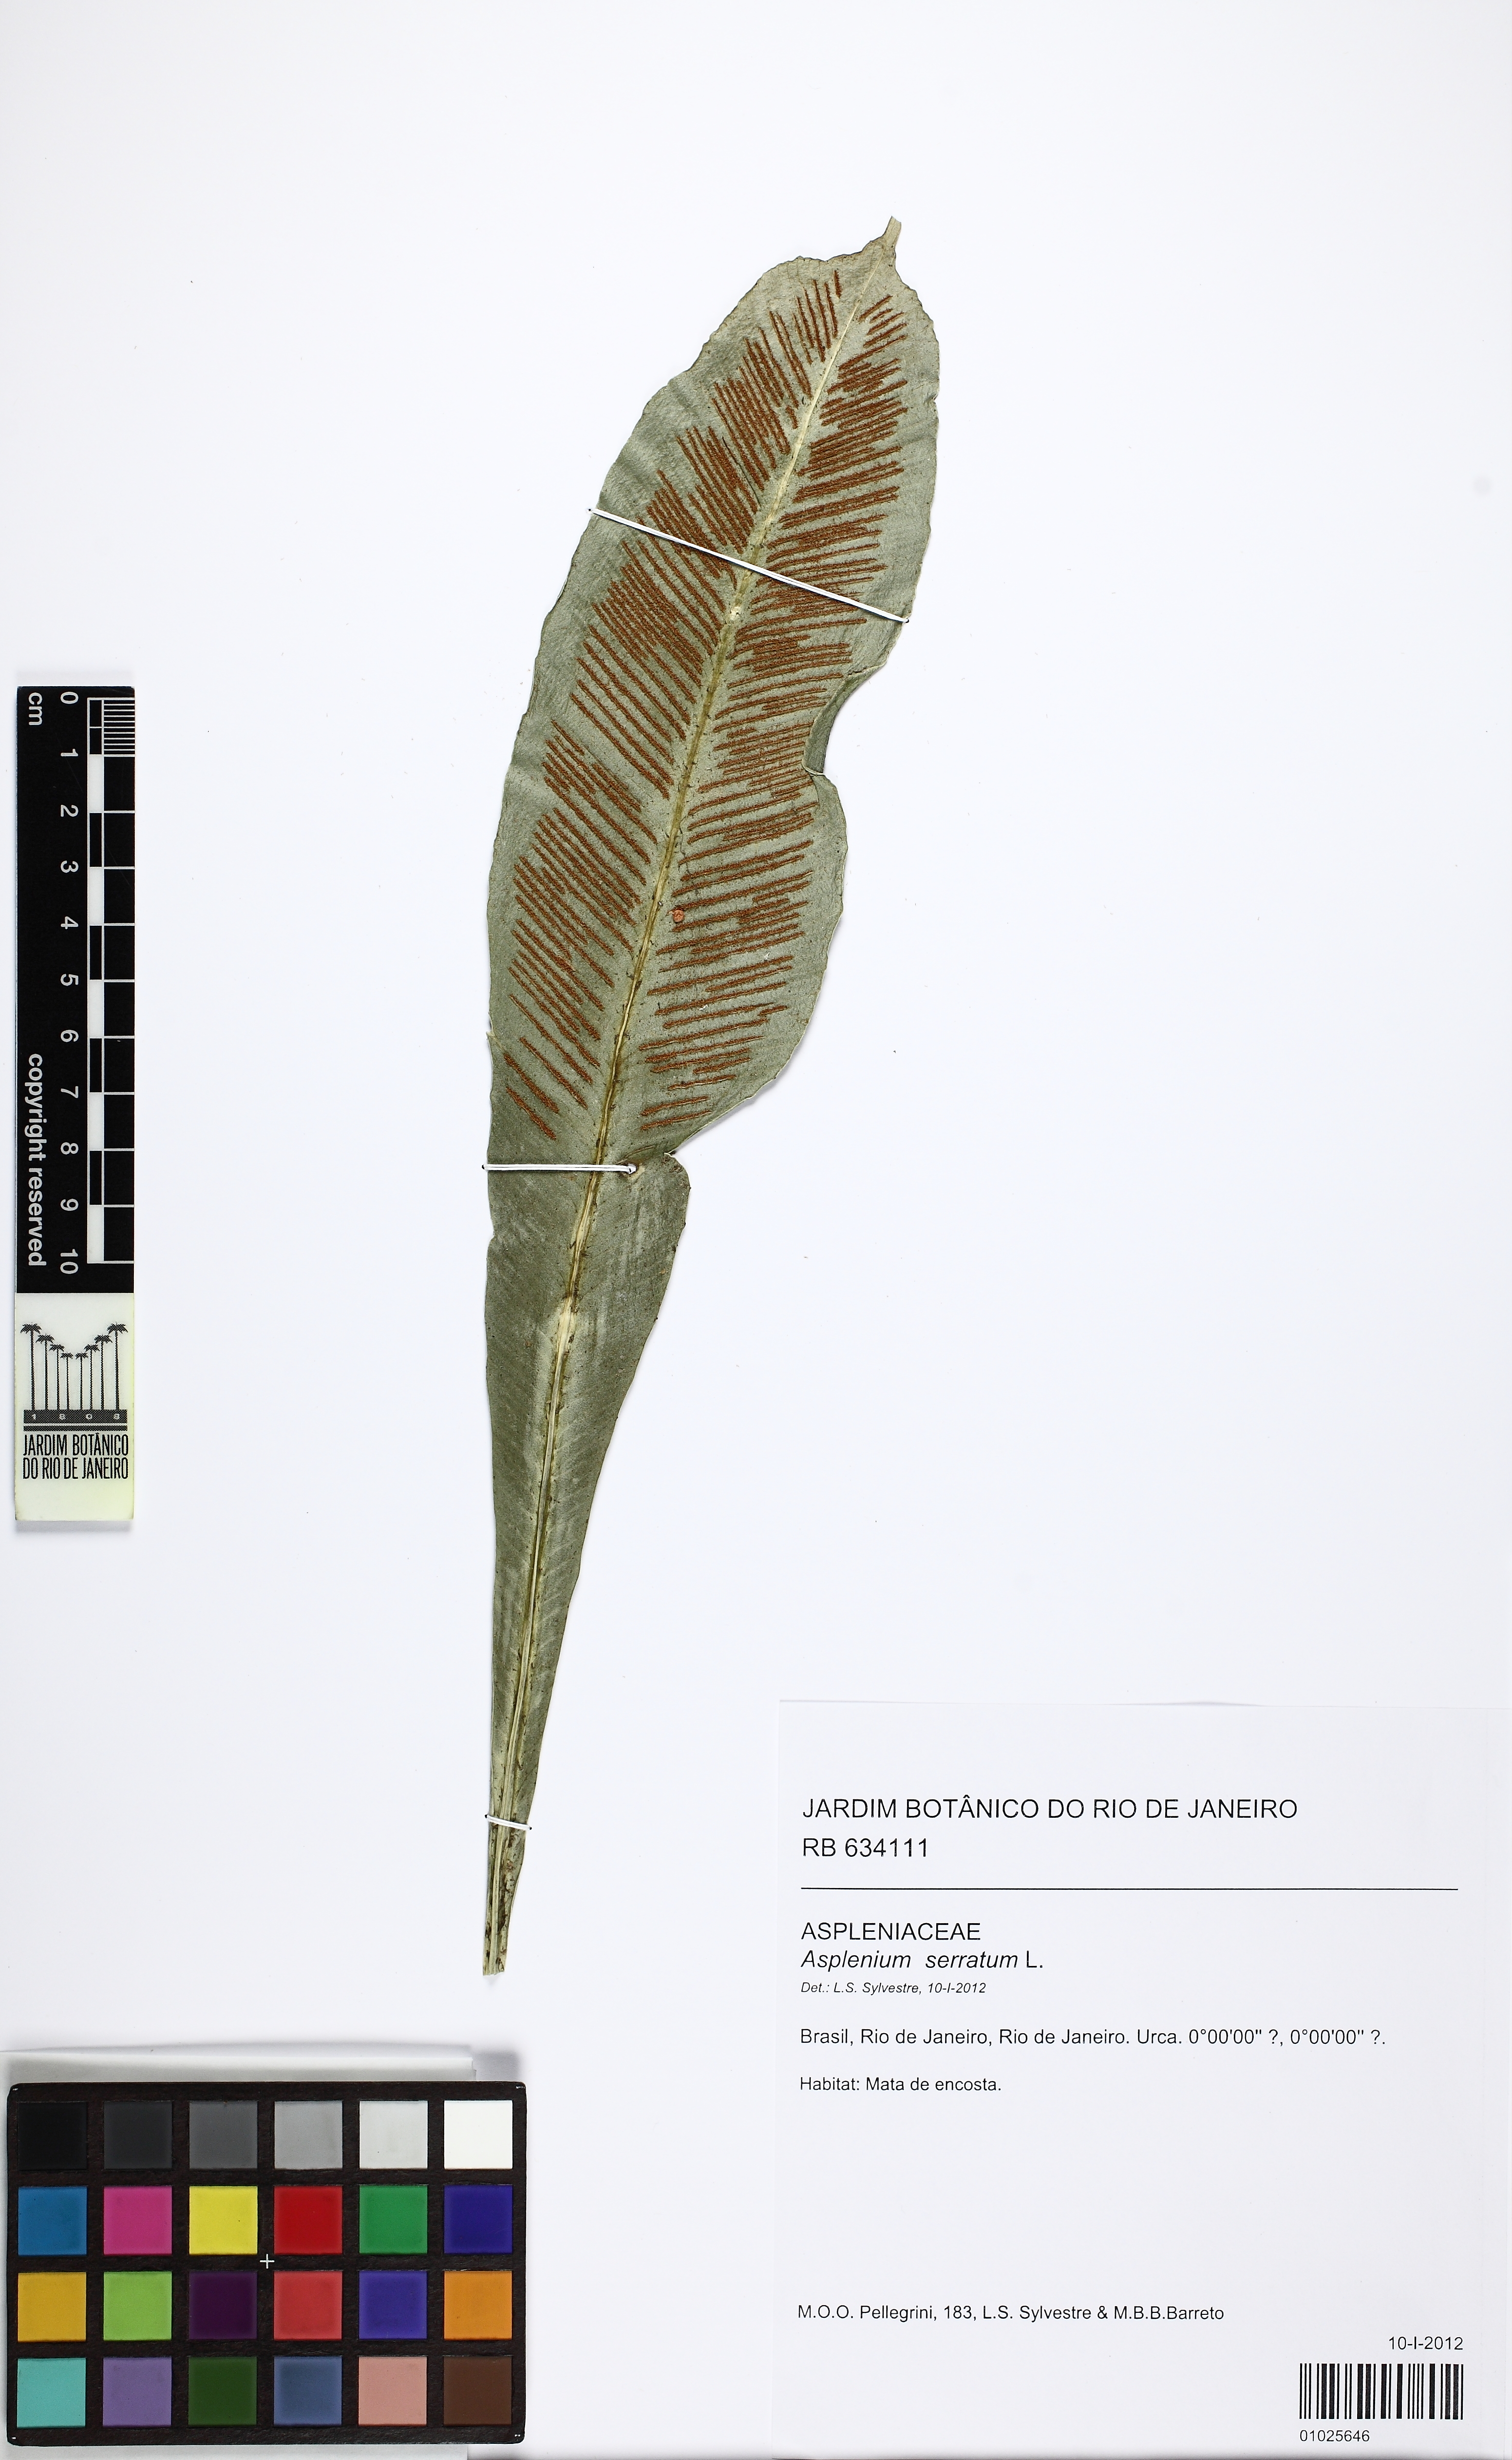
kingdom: Plantae
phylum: Tracheophyta
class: Polypodiopsida
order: Polypodiales
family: Aspleniaceae
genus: Asplenium
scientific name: Asplenium coronatum
